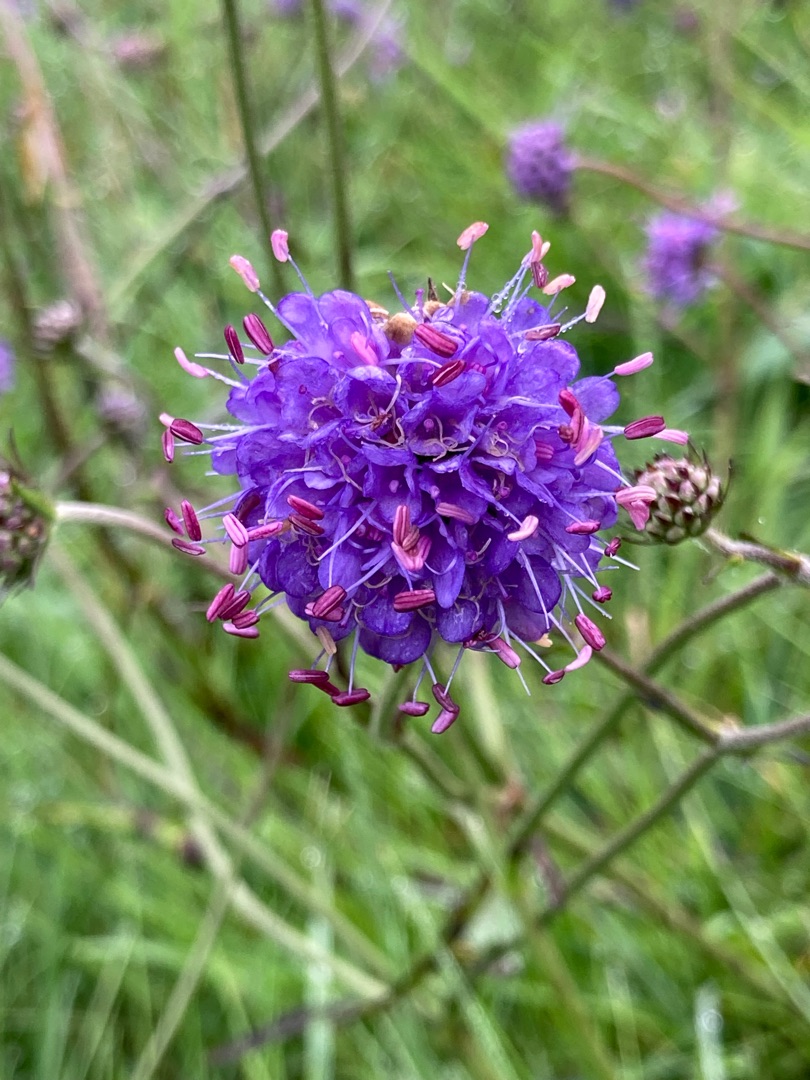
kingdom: Plantae
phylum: Tracheophyta
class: Magnoliopsida
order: Dipsacales
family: Caprifoliaceae
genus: Succisa
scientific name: Succisa pratensis
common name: Djævelsbid
